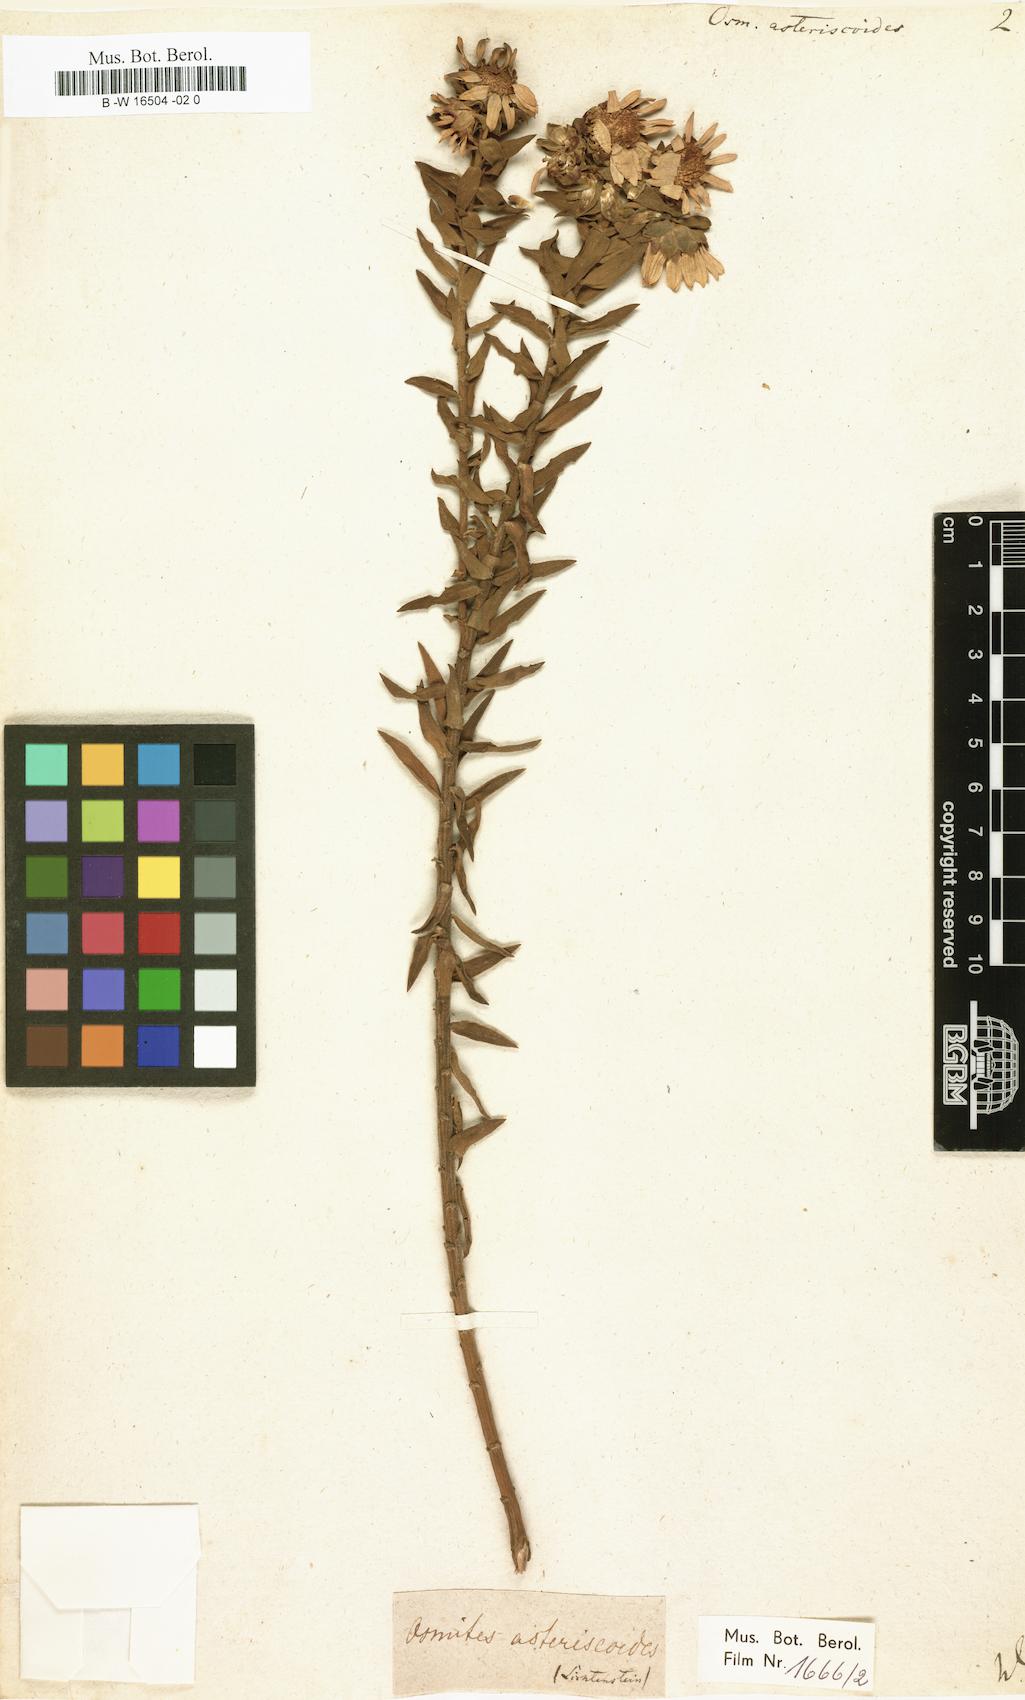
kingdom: Plantae
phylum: Tracheophyta
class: Magnoliopsida
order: Asterales
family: Asteraceae
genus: Osmitopsis
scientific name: Osmitopsis asteriscoides
